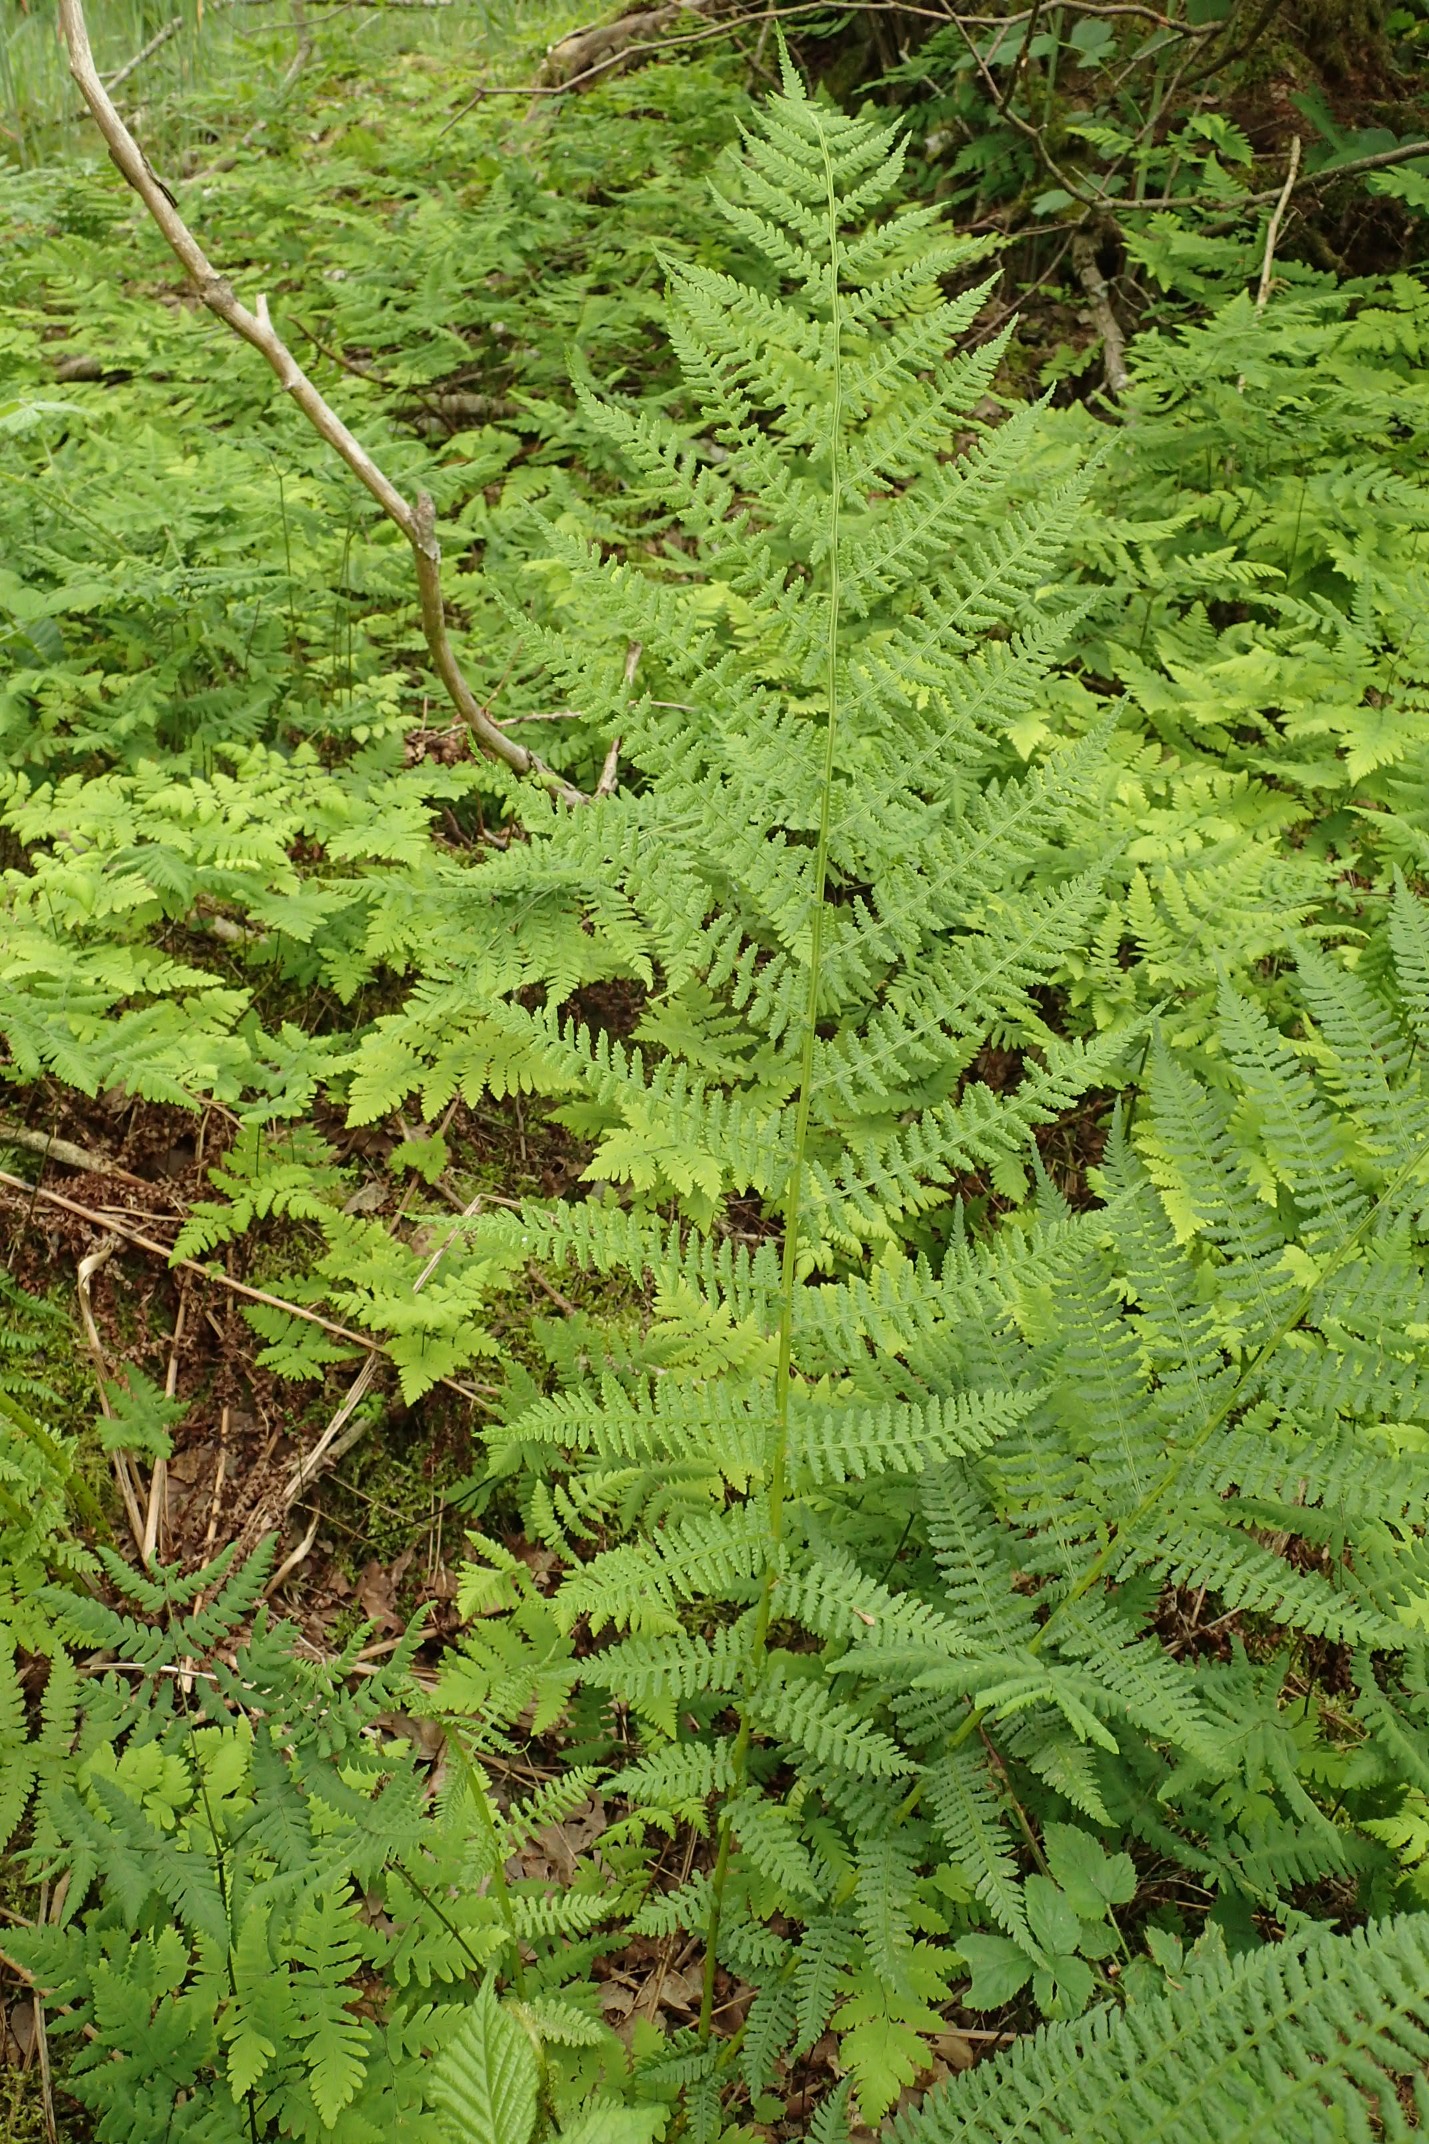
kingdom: Plantae
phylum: Tracheophyta
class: Polypodiopsida
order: Polypodiales
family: Athyriaceae
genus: Athyrium
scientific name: Athyrium filix-femina
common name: Fjerbregne
